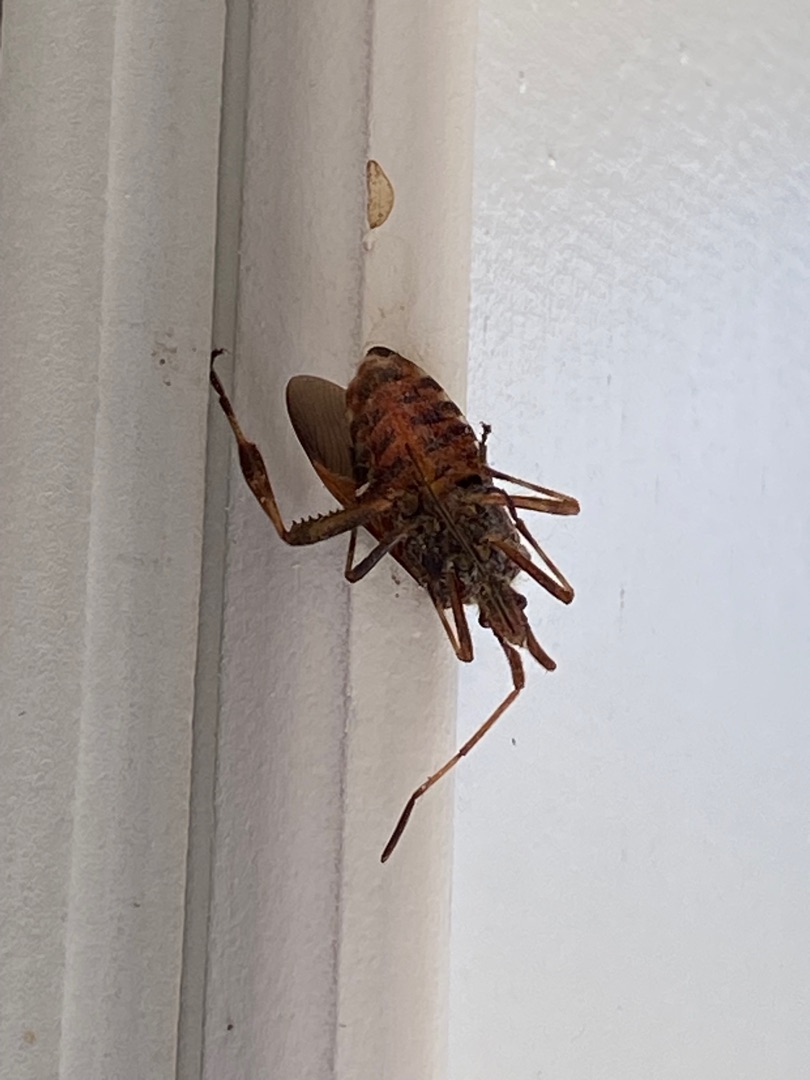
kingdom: Animalia
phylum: Arthropoda
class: Insecta
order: Hemiptera
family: Coreidae
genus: Leptoglossus
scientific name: Leptoglossus occidentalis
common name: Amerikansk fyrretæge
